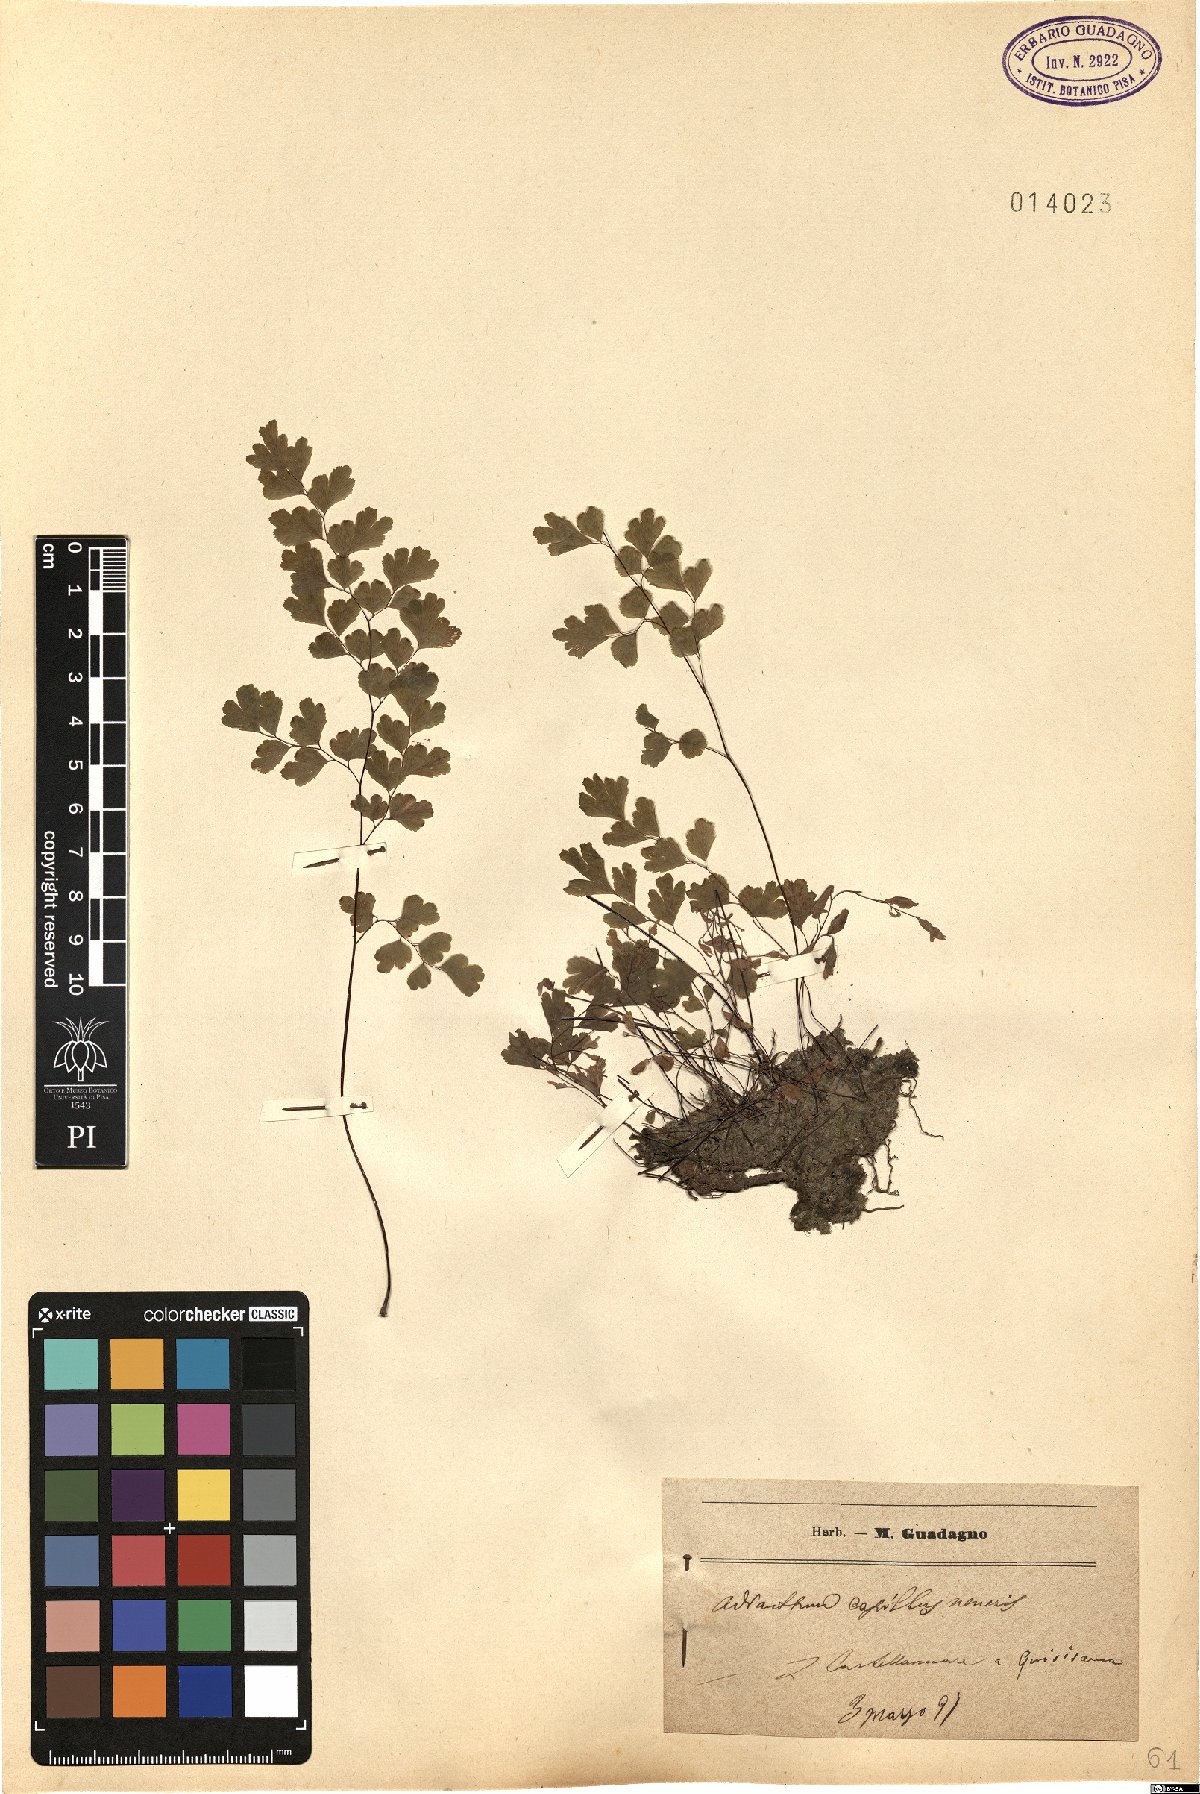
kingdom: Plantae
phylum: Tracheophyta
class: Polypodiopsida
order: Polypodiales
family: Pteridaceae
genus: Adiantum
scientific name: Adiantum capillus-veneris
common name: Maidenhair fern
